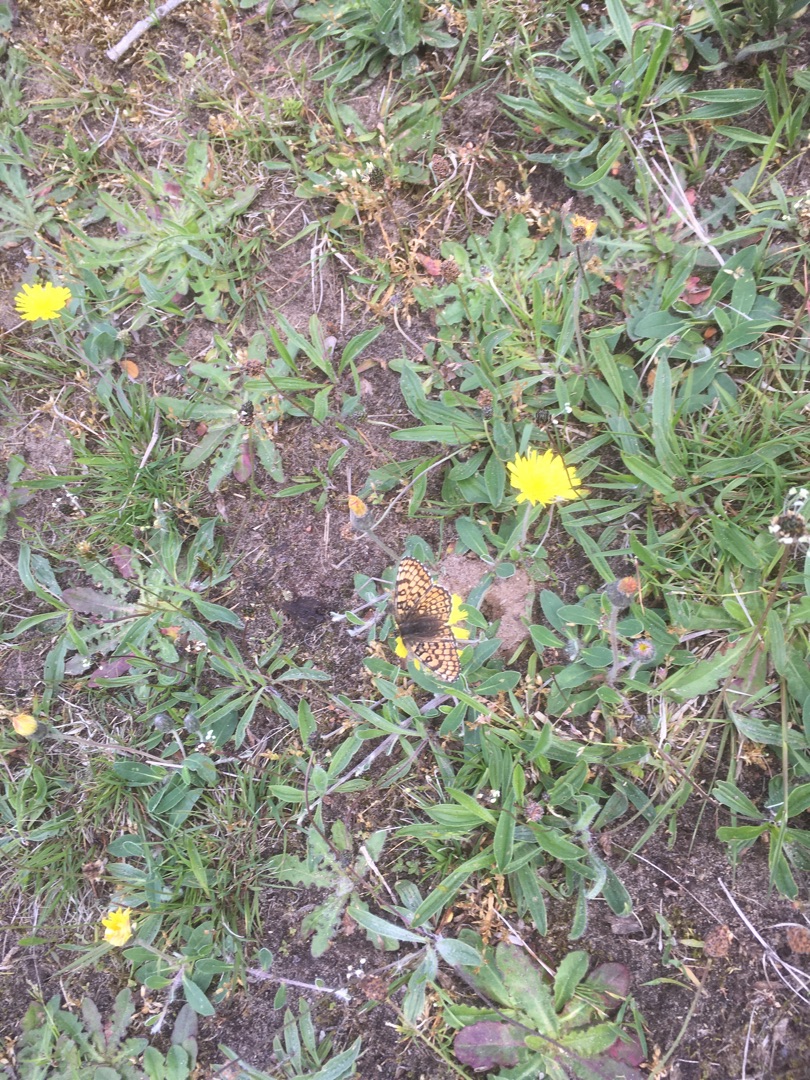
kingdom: Animalia
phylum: Arthropoda
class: Insecta
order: Lepidoptera
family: Nymphalidae
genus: Melitaea
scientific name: Melitaea cinxia
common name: Okkergul pletvinge
